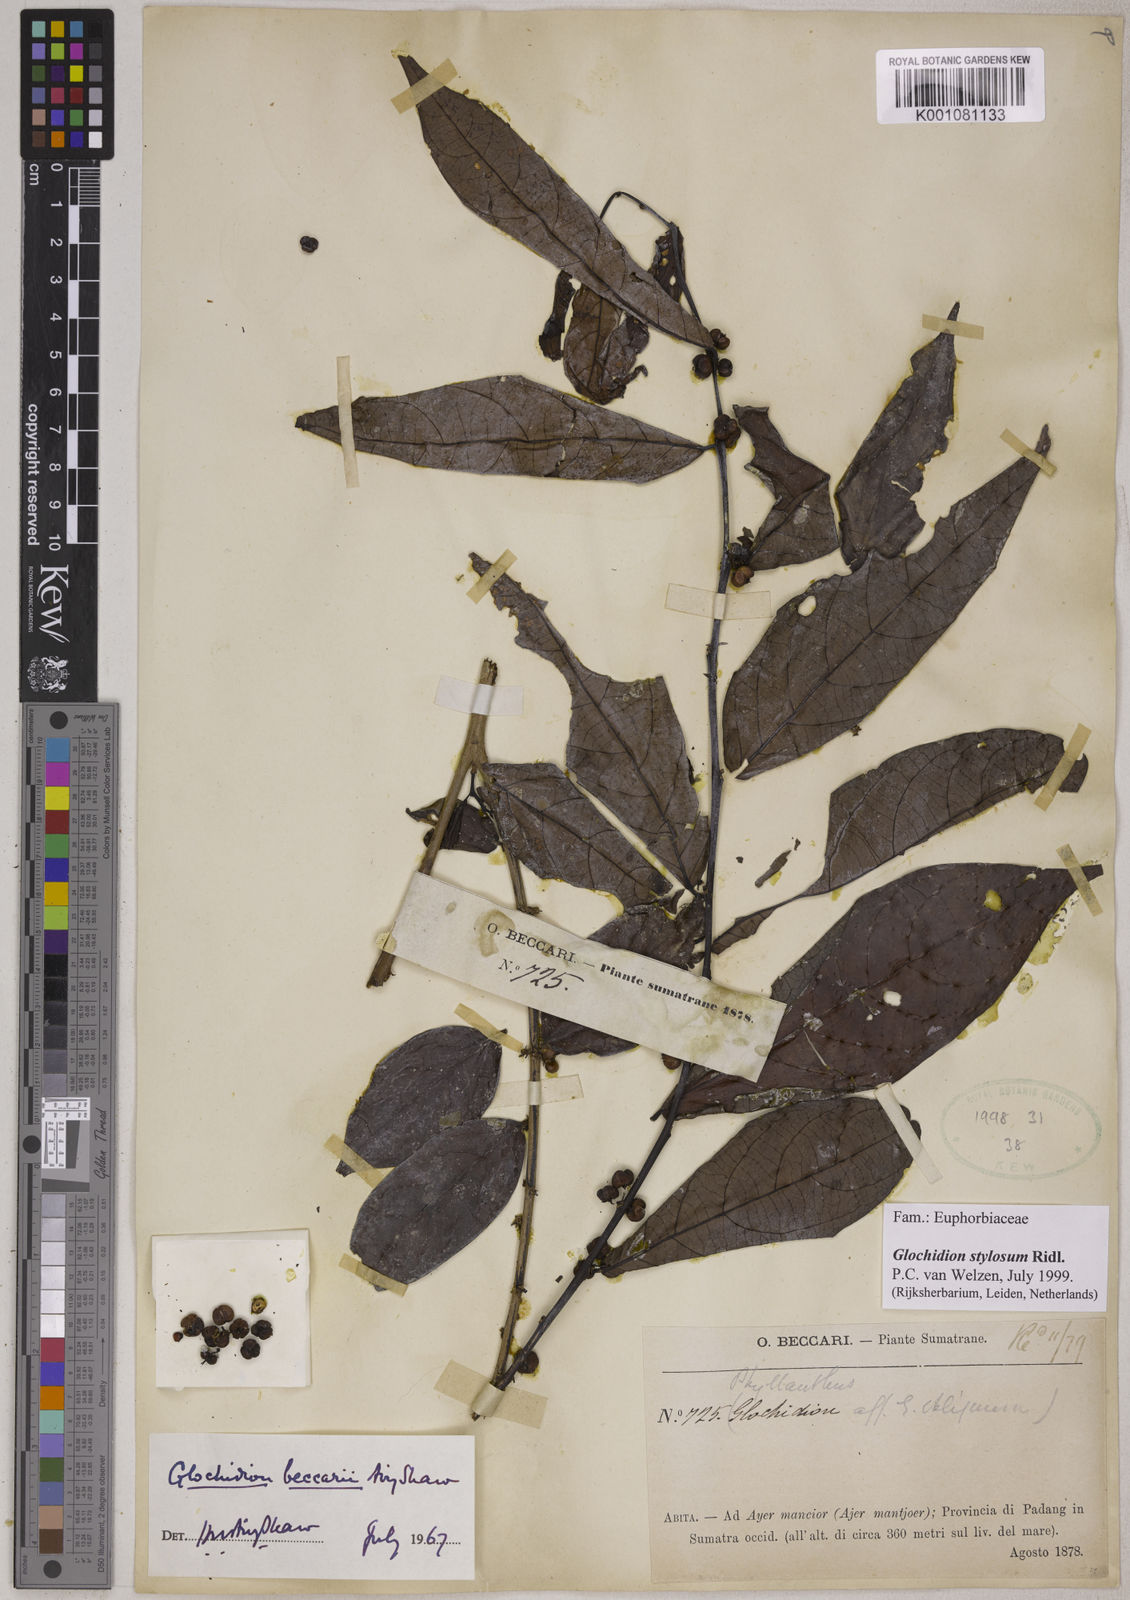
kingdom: Plantae
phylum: Tracheophyta
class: Magnoliopsida
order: Malpighiales
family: Phyllanthaceae
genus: Glochidion
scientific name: Glochidion beccarii
